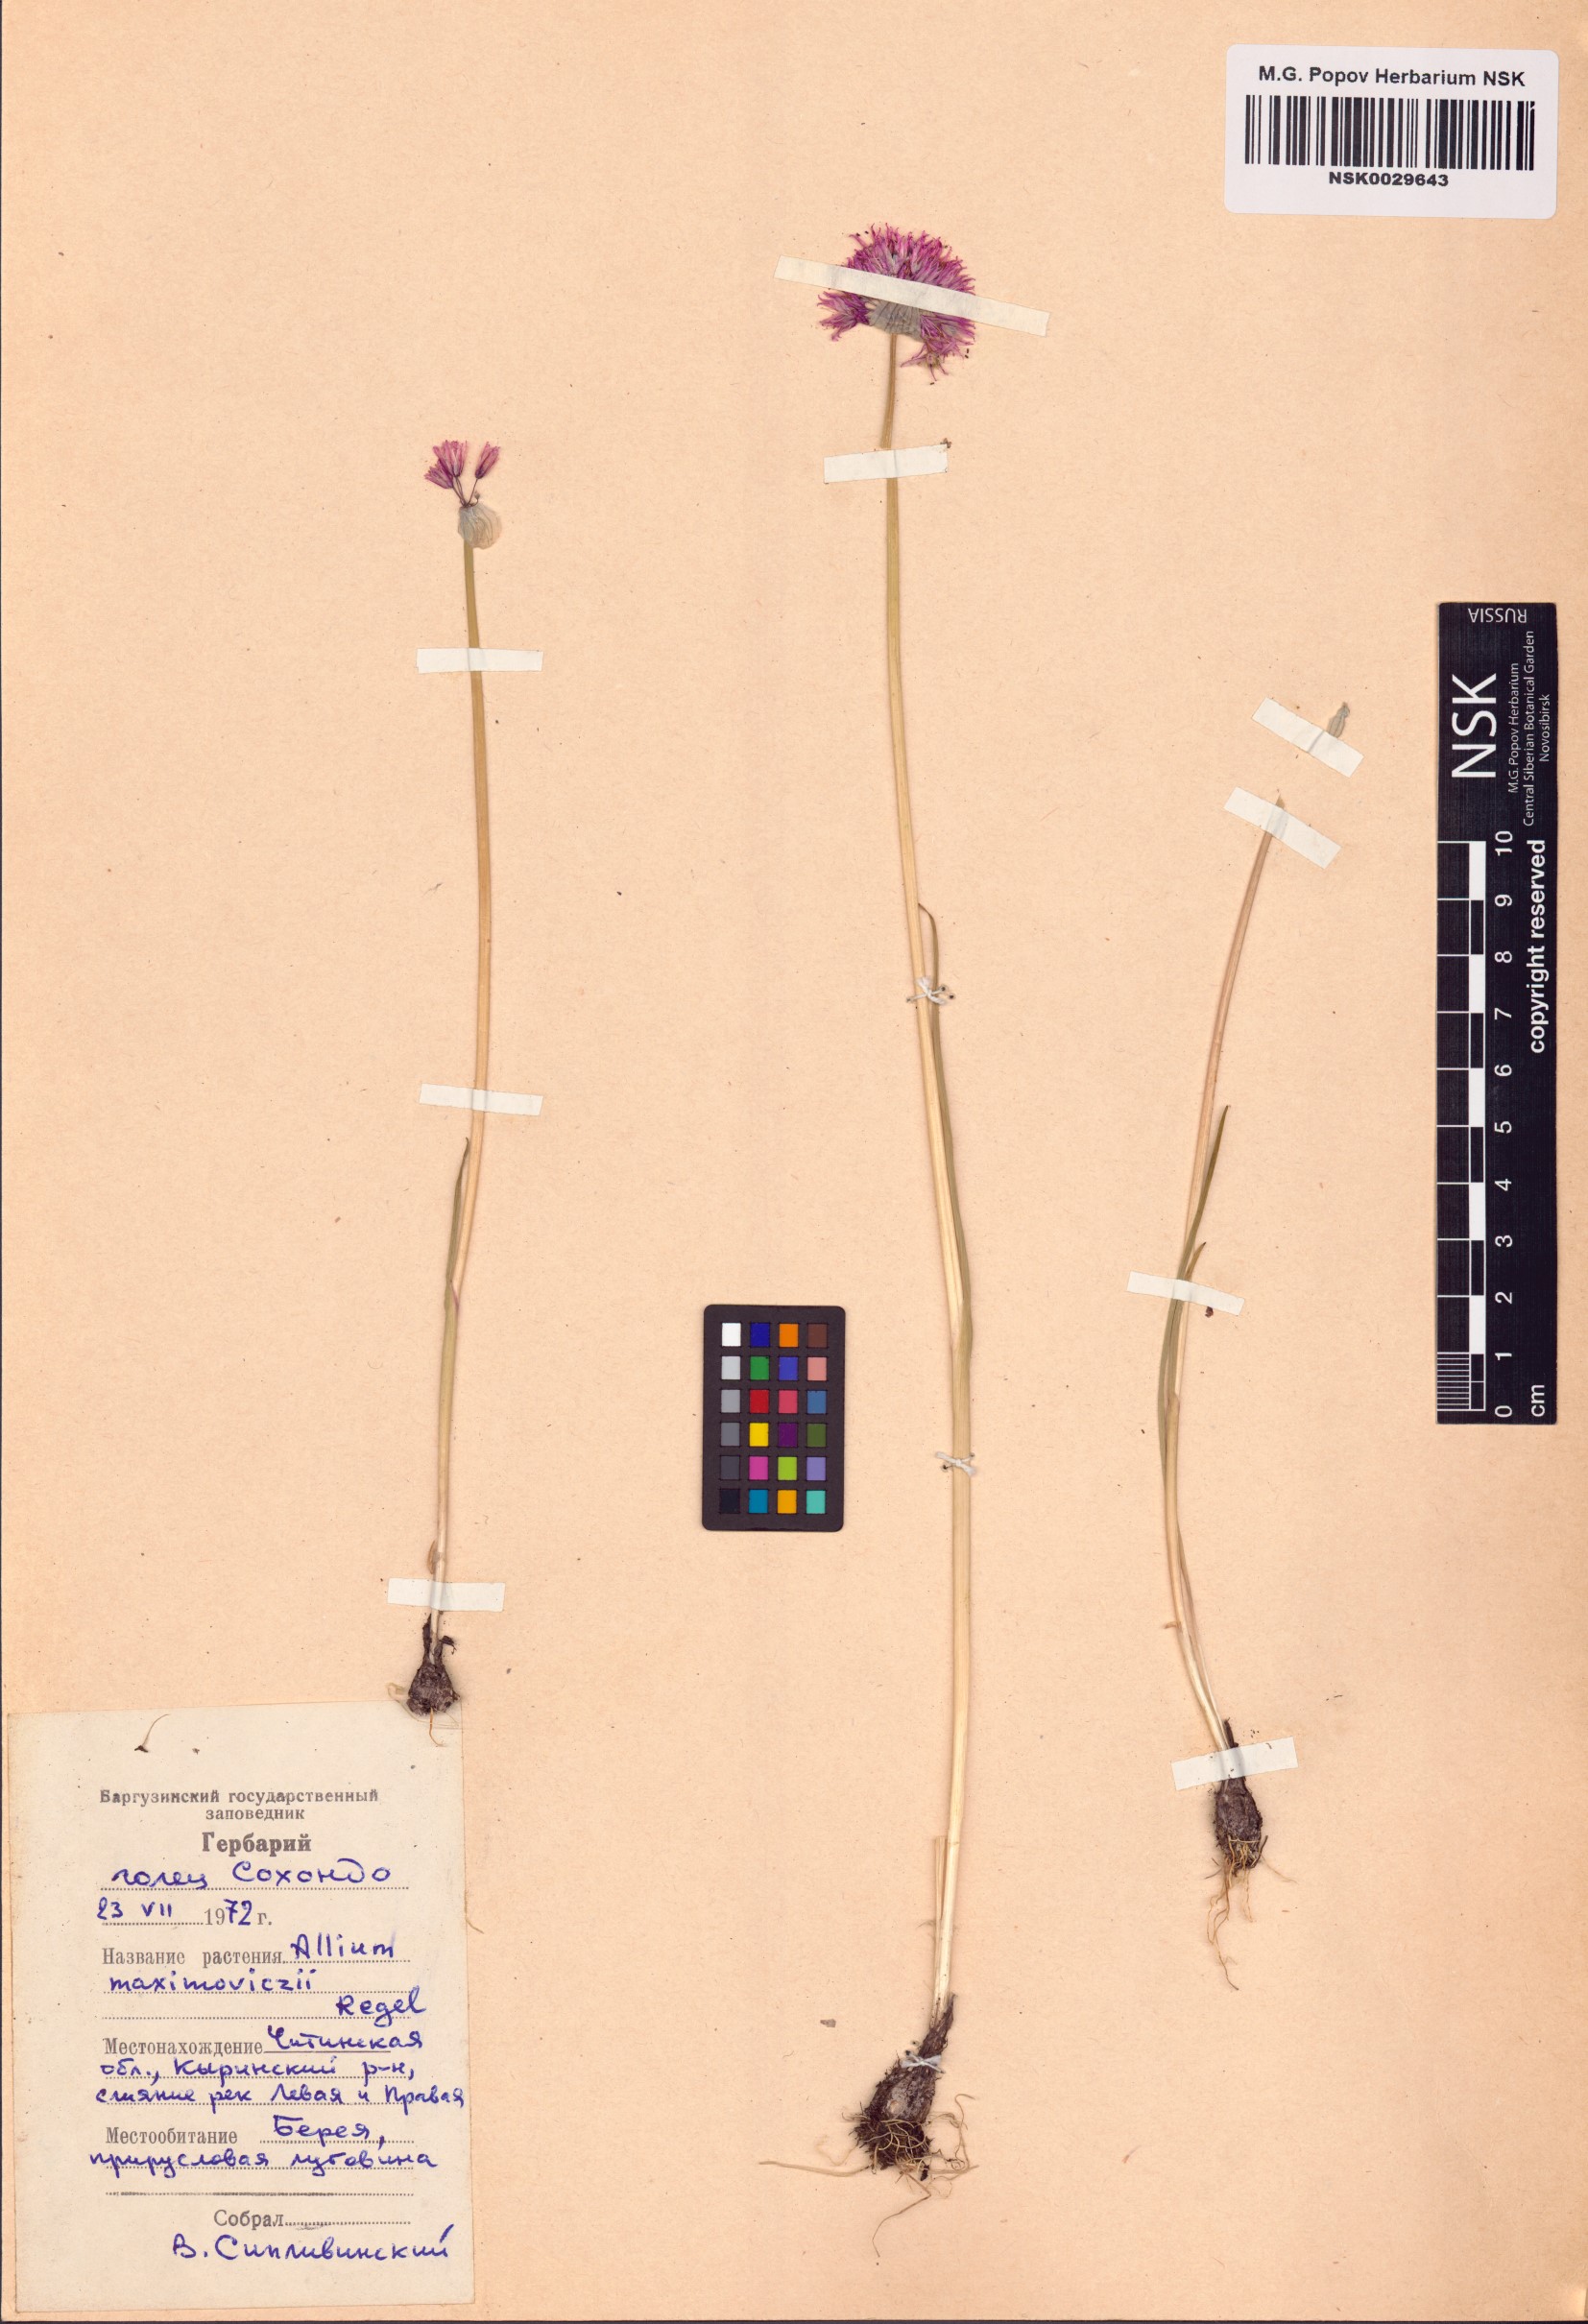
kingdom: Plantae
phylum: Tracheophyta
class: Liliopsida
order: Asparagales
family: Amaryllidaceae
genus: Allium
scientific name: Allium maximowiczii
